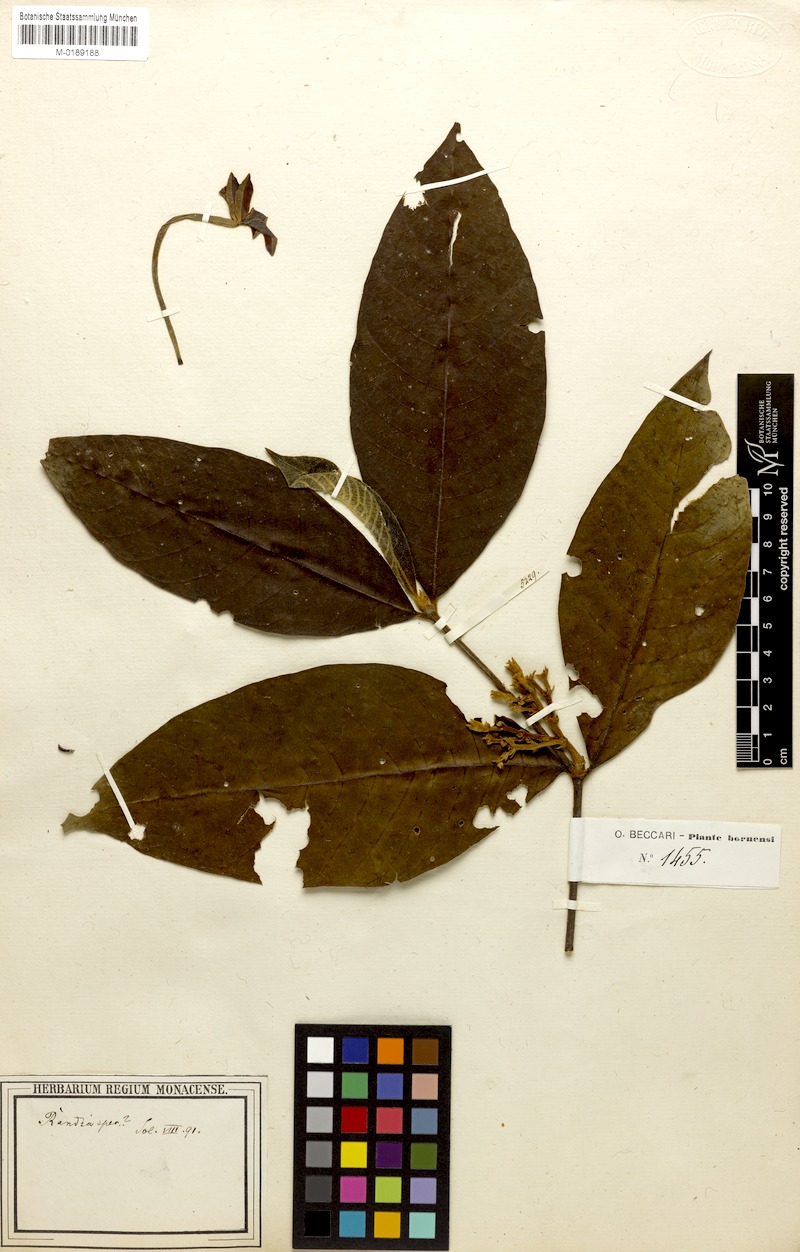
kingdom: Plantae
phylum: Tracheophyta
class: Magnoliopsida
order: Gentianales
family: Rubiaceae
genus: Randia
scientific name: Randia
